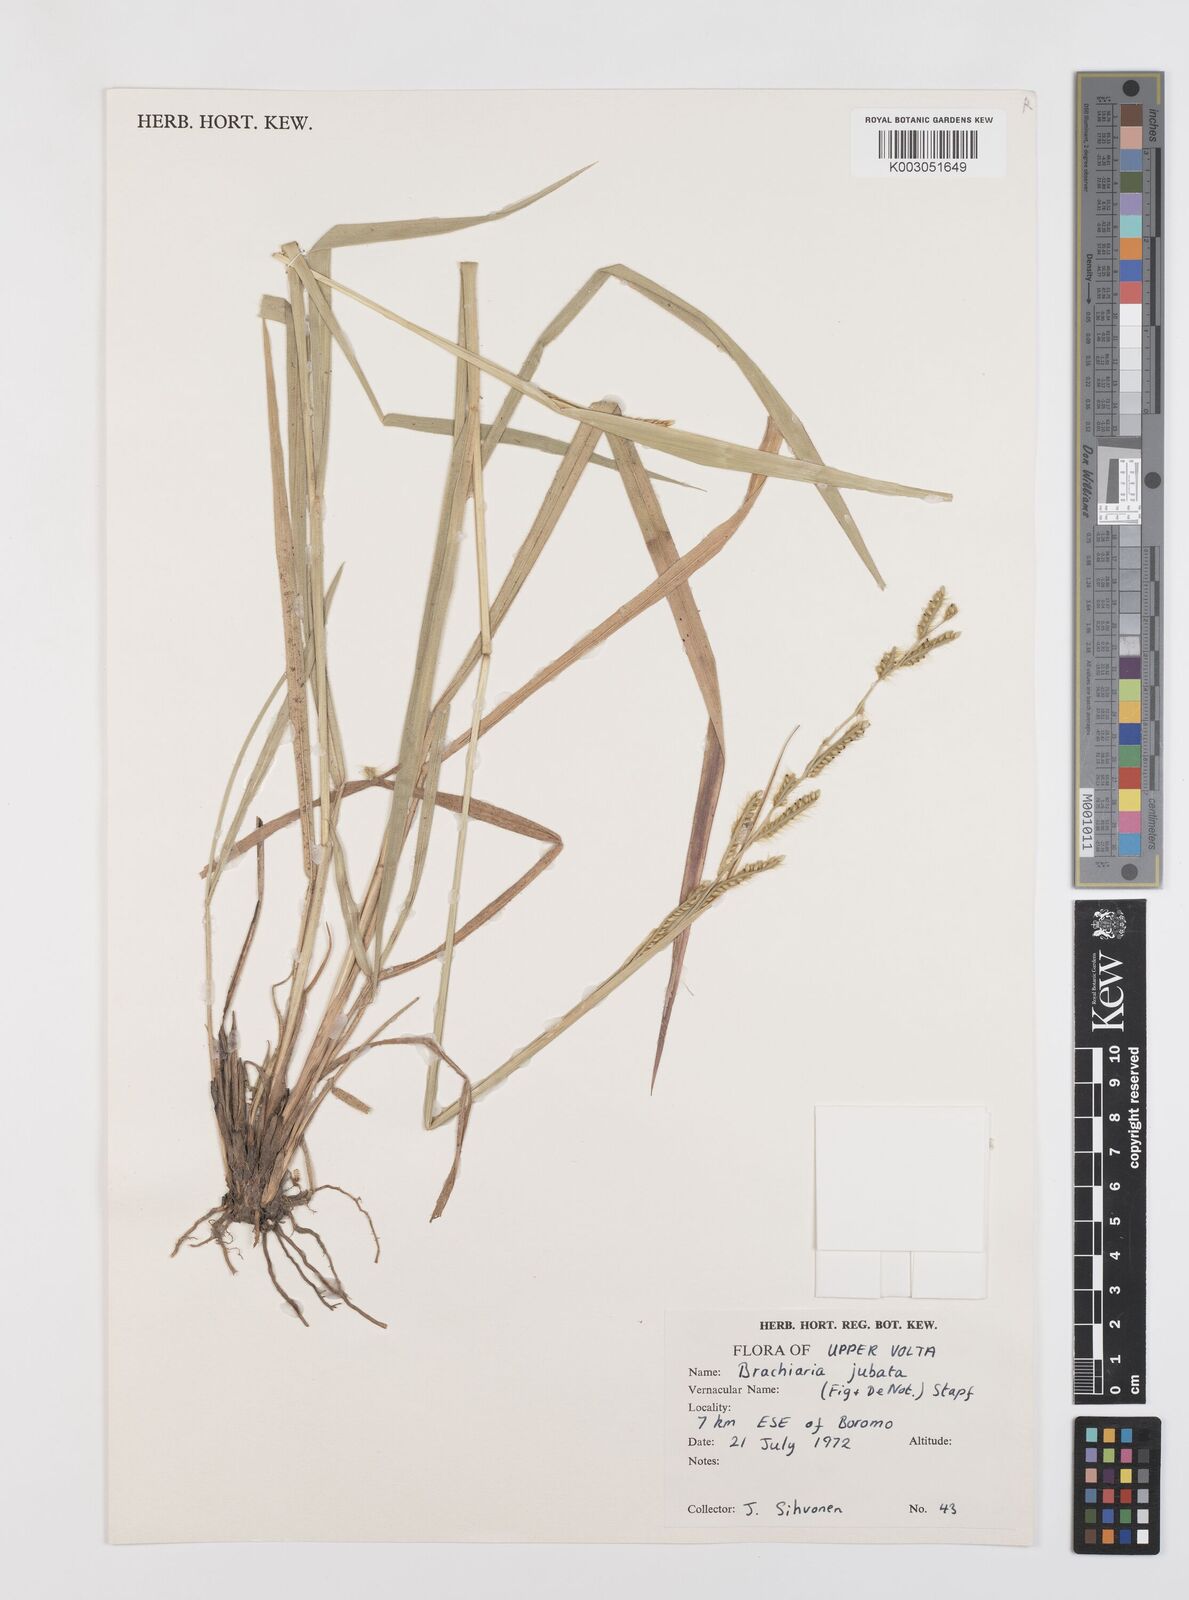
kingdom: Plantae
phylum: Tracheophyta
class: Liliopsida
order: Poales
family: Poaceae
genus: Urochloa
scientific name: Urochloa jubata
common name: Buffalograss
